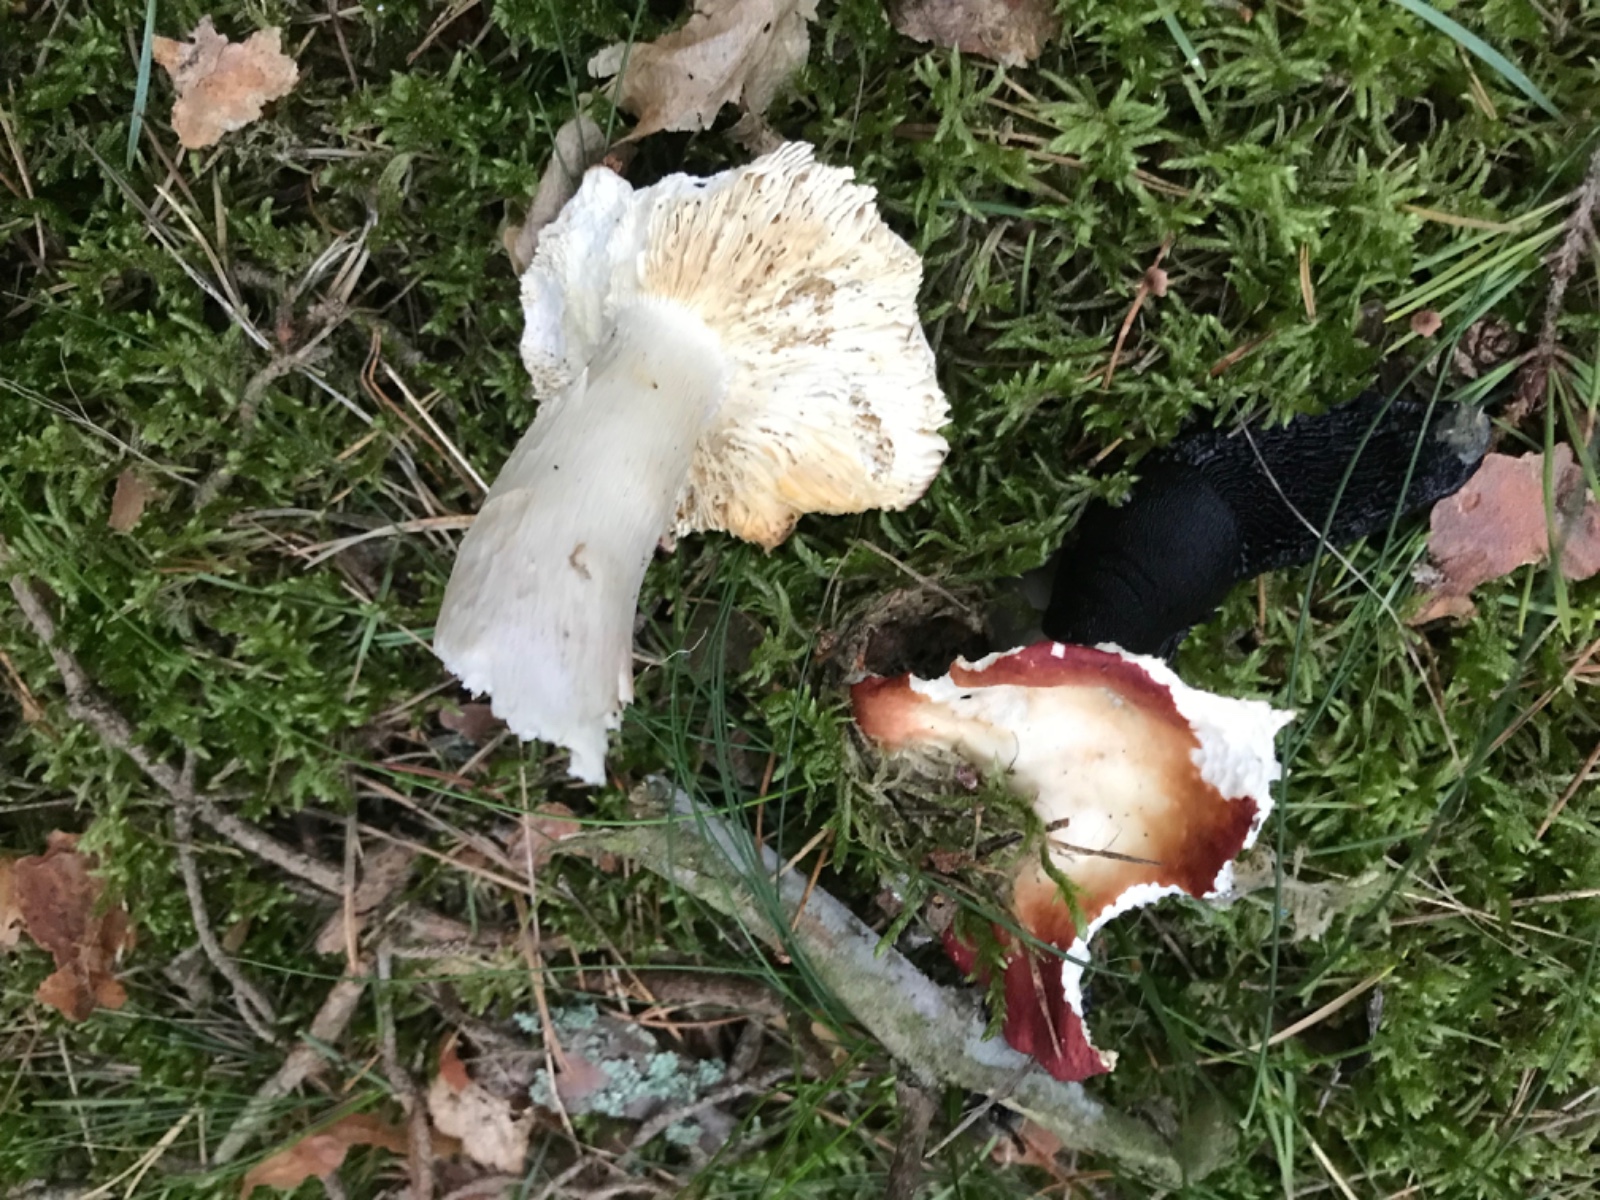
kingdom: Fungi
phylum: Basidiomycota
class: Agaricomycetes
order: Russulales
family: Russulaceae
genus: Russula
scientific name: Russula xerampelina
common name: hummer-skørhat
